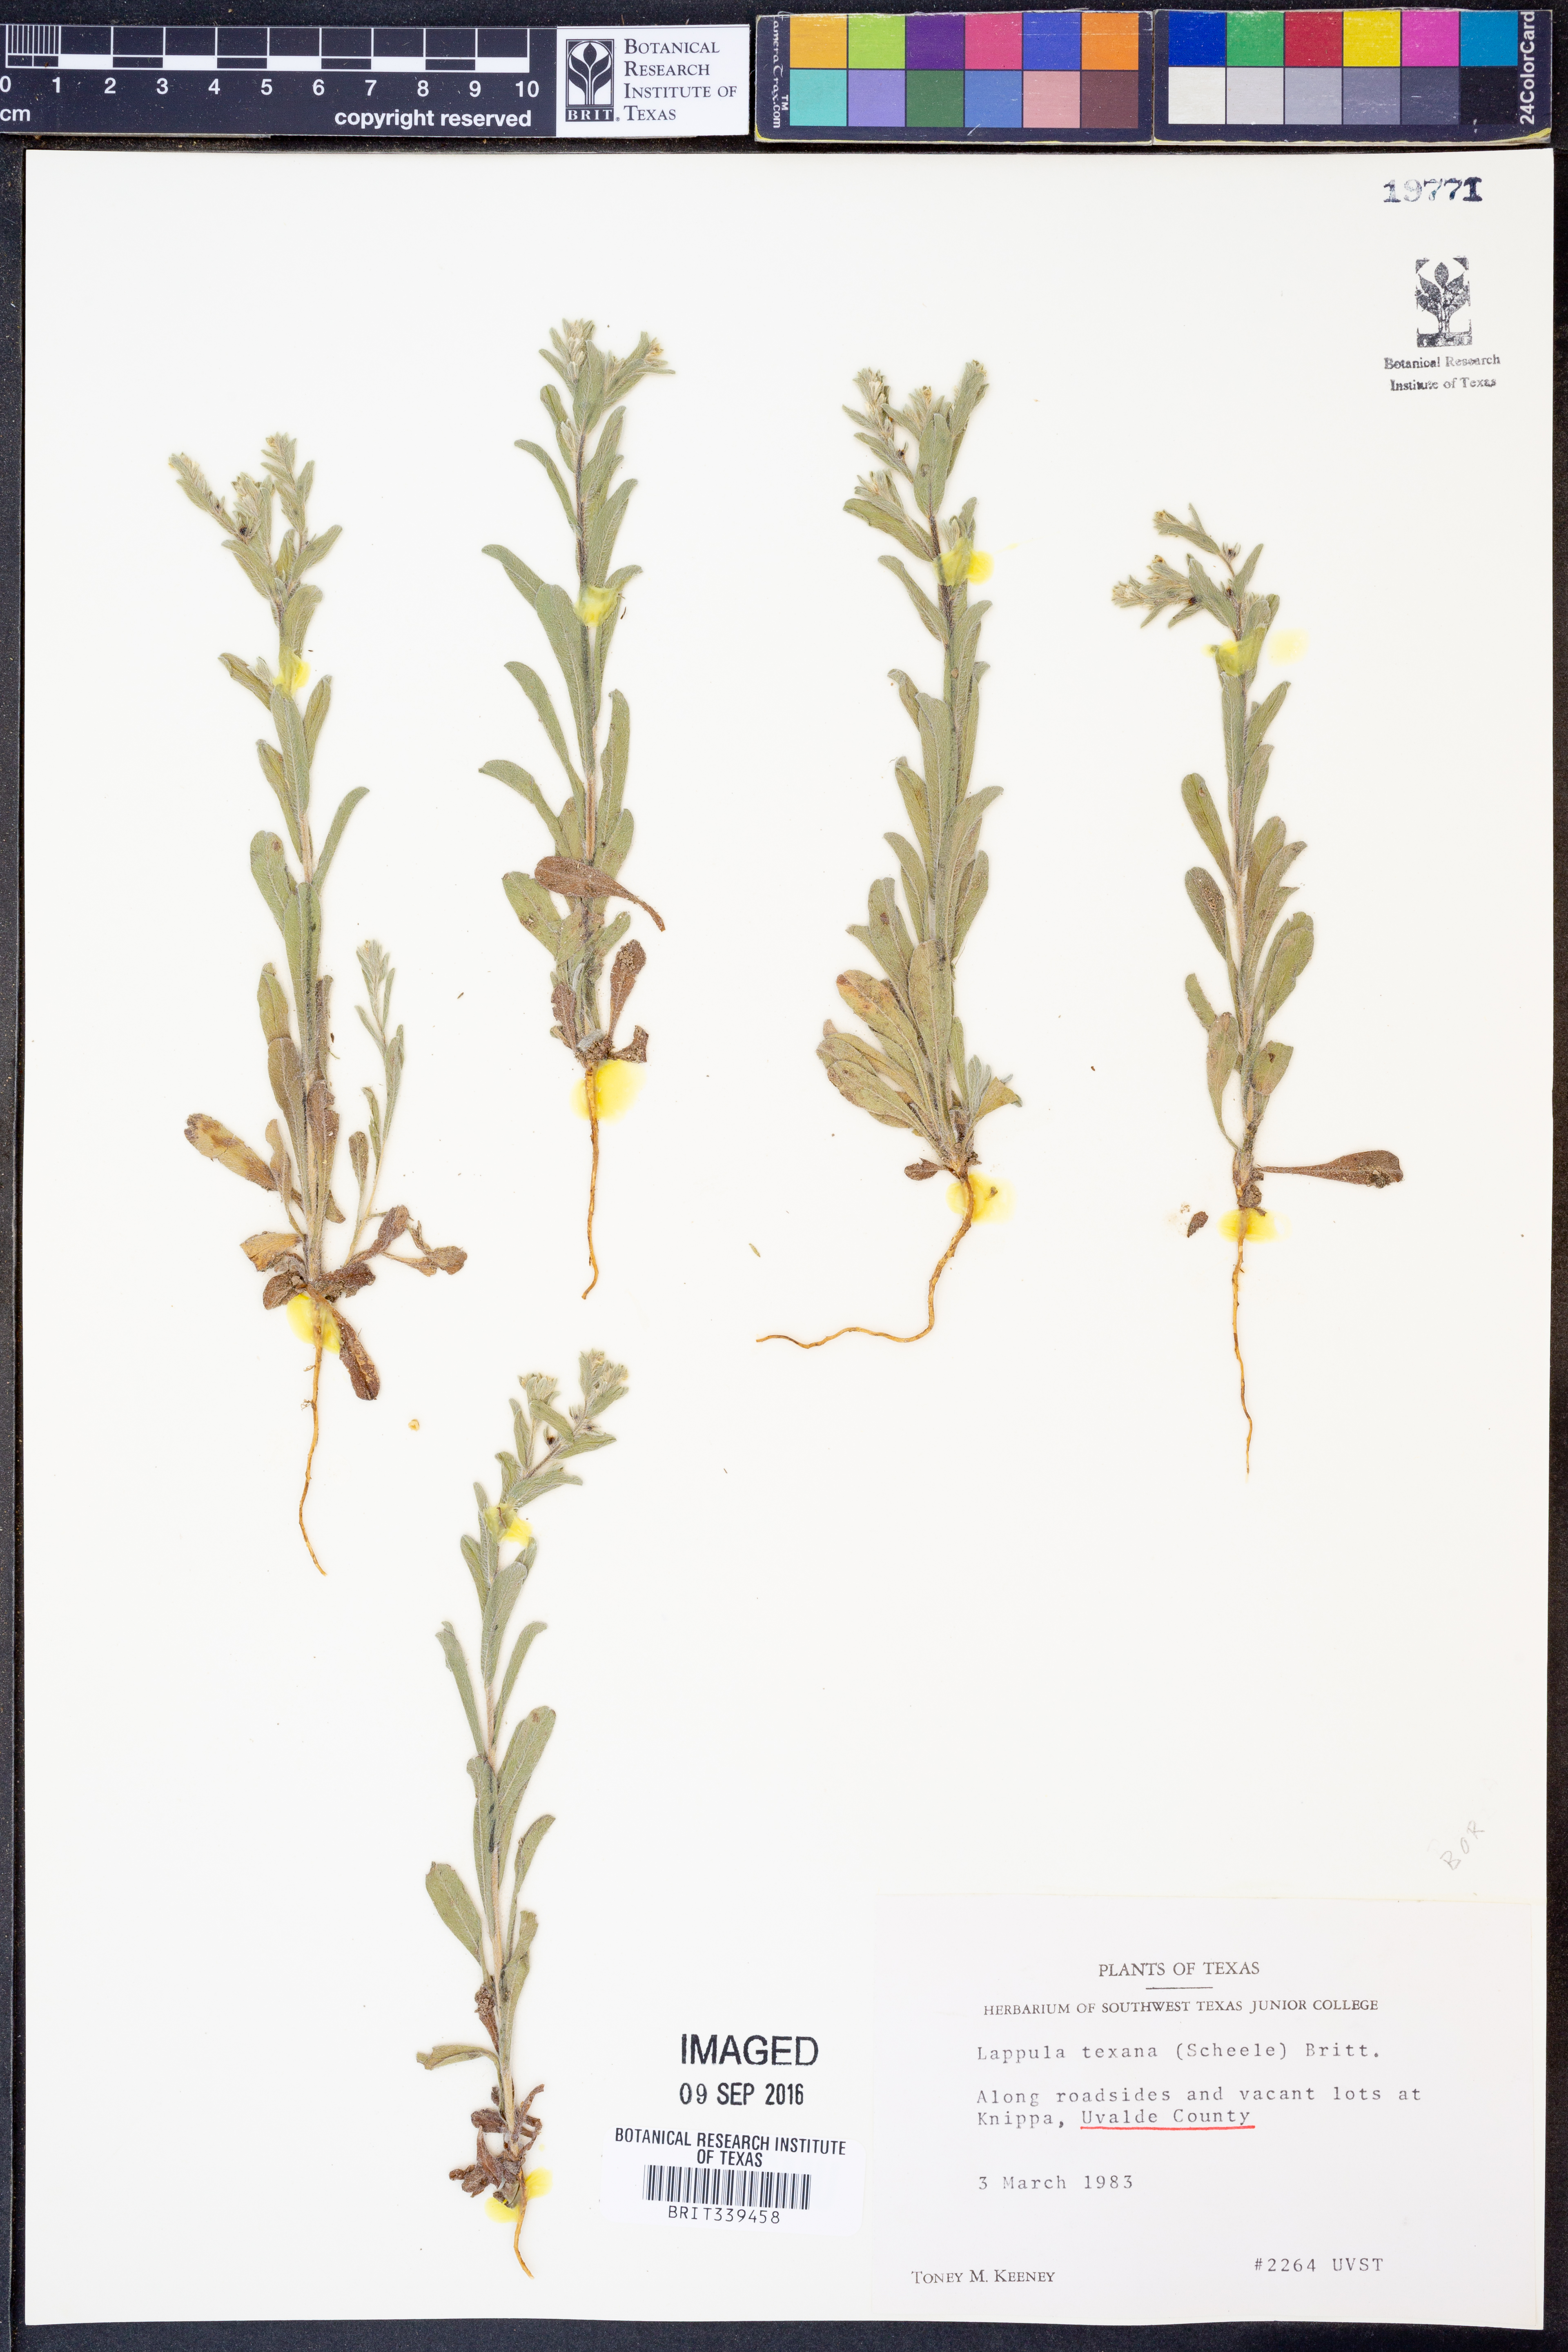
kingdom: Plantae
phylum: Tracheophyta
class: Magnoliopsida
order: Boraginales
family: Boraginaceae
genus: Lappula
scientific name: Lappula occidentalis
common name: Western stickseed
